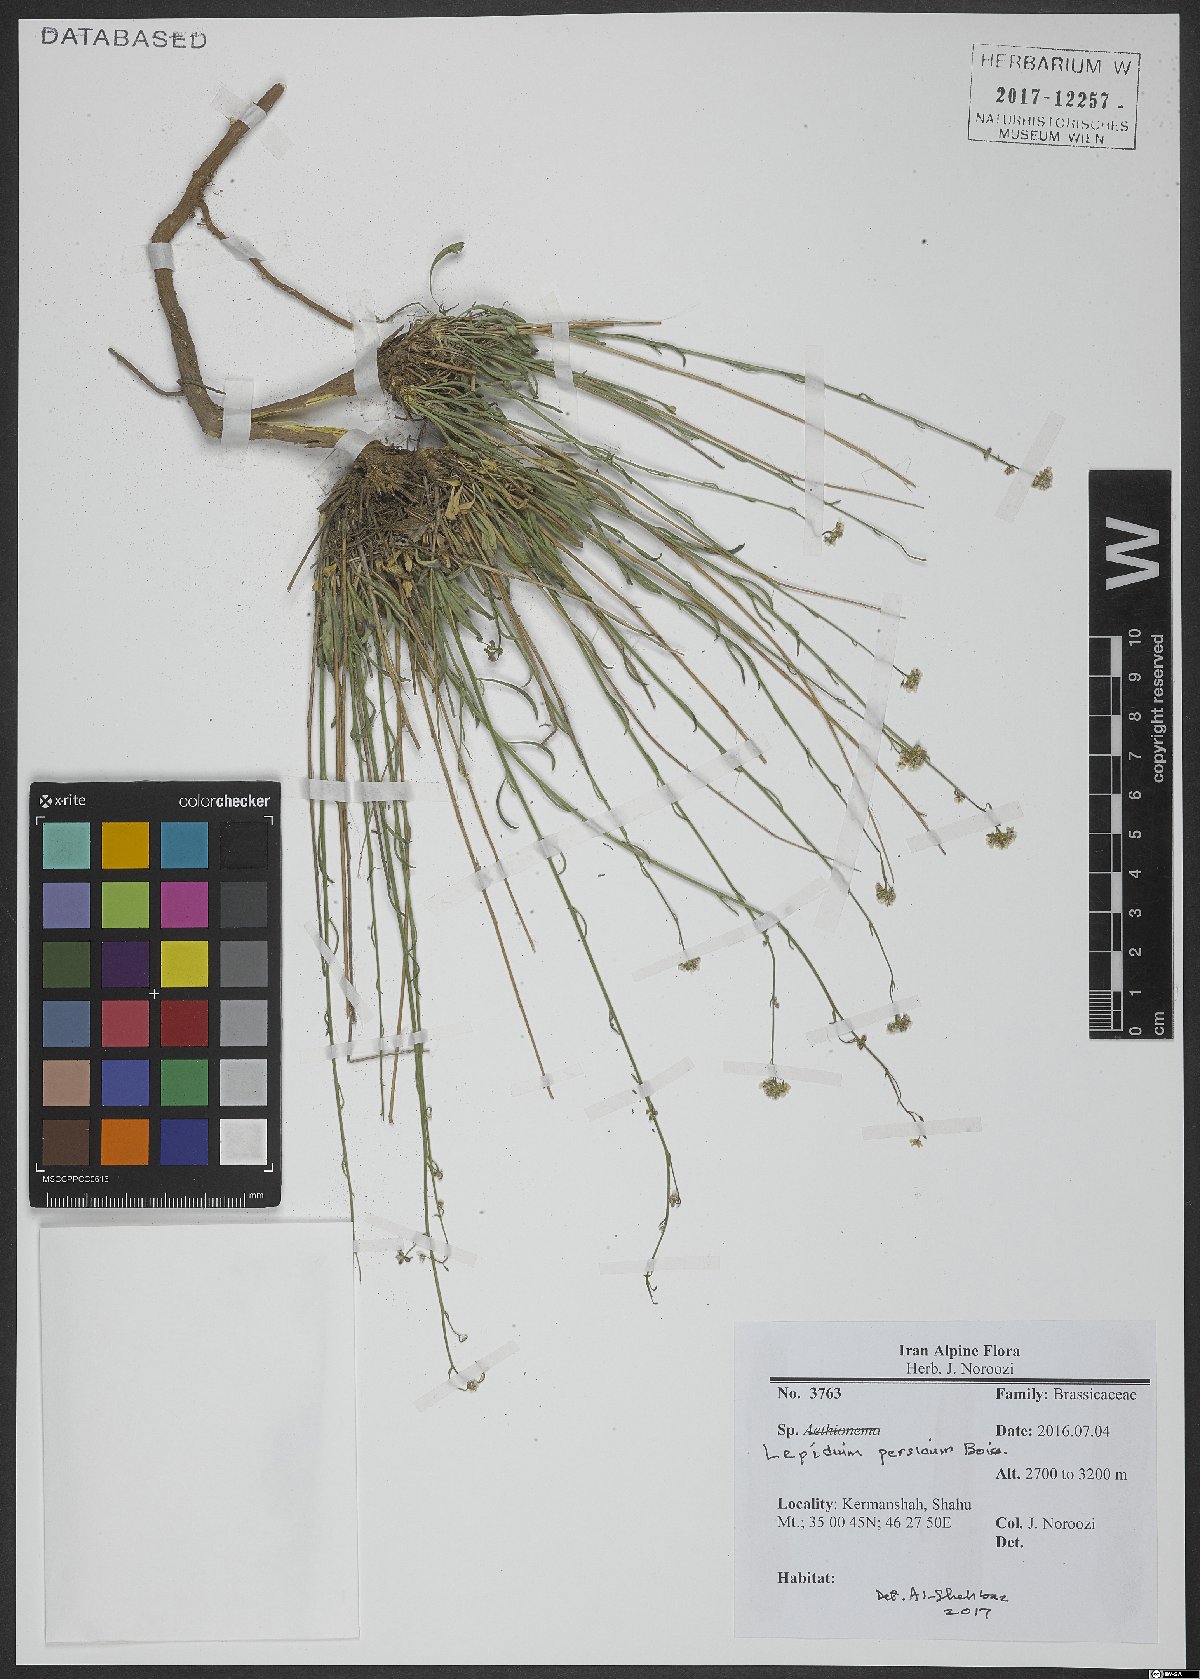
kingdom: Plantae
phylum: Tracheophyta
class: Magnoliopsida
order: Brassicales
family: Brassicaceae
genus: Lepidium
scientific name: Lepidium persicum
